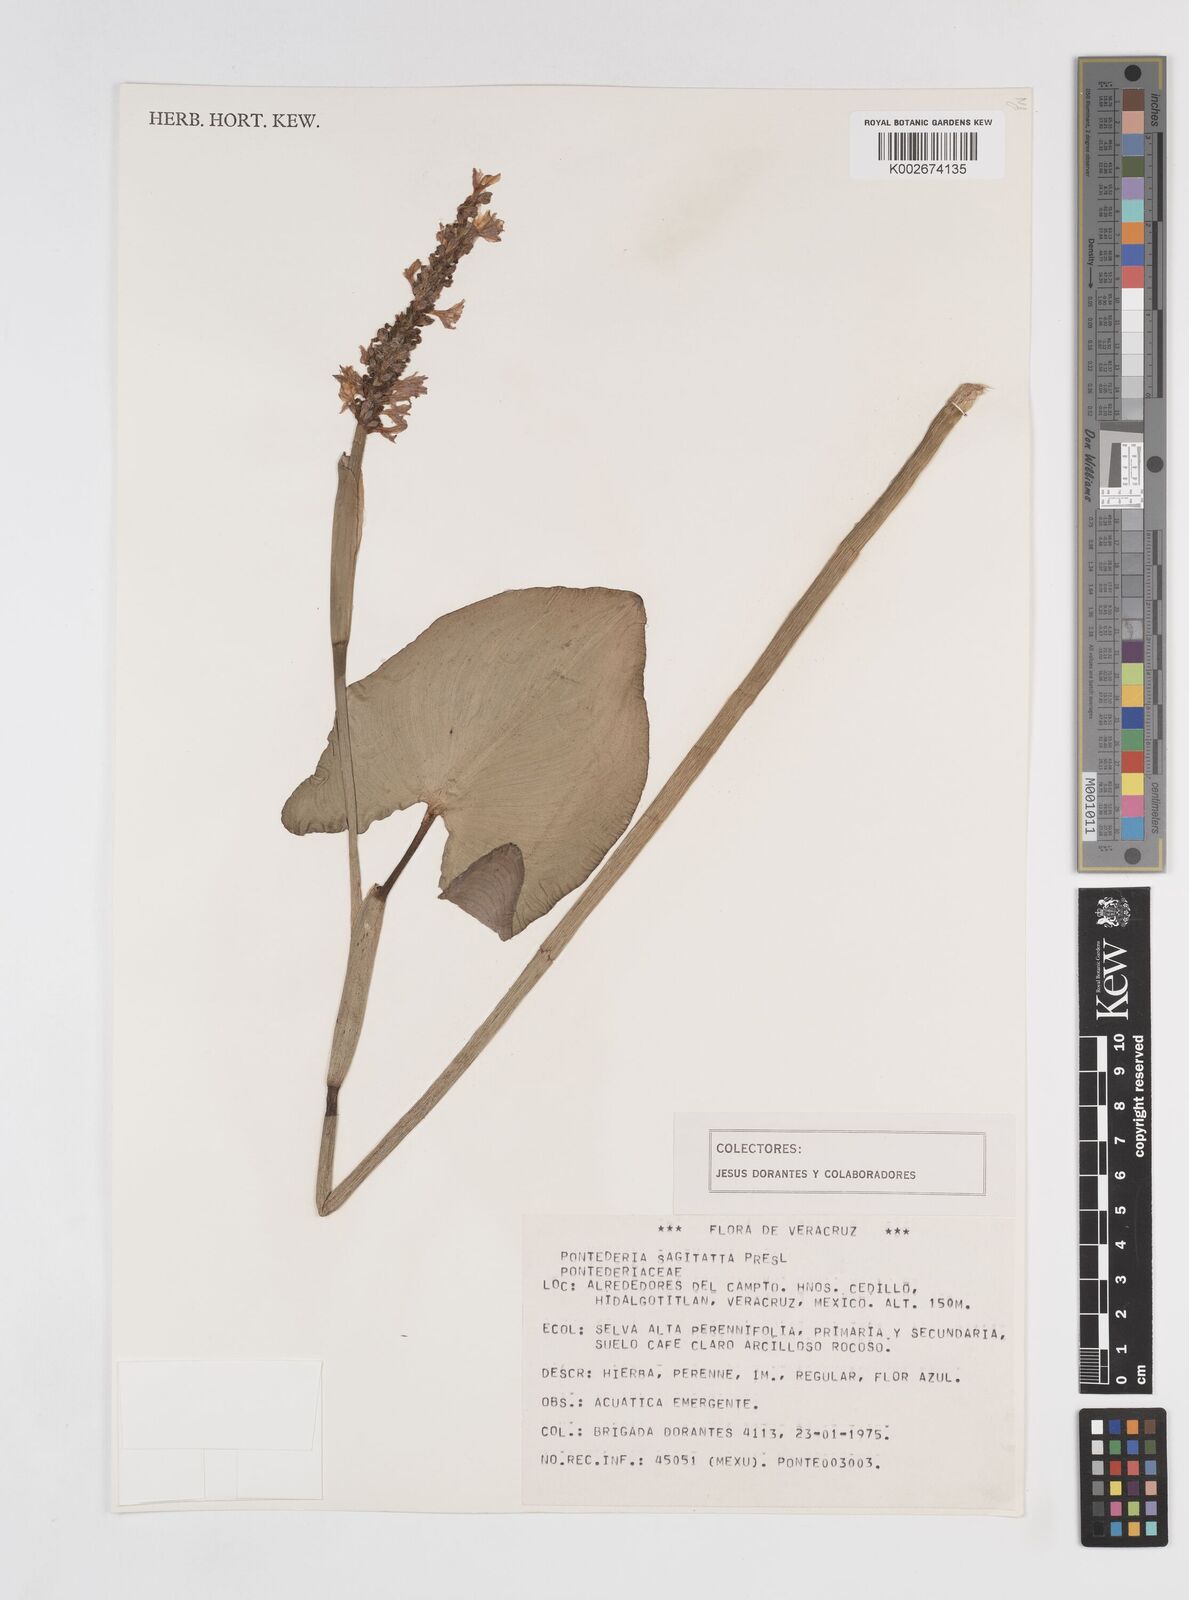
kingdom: Plantae
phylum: Tracheophyta
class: Liliopsida
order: Commelinales
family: Pontederiaceae
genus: Pontederia
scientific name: Pontederia sagittata
